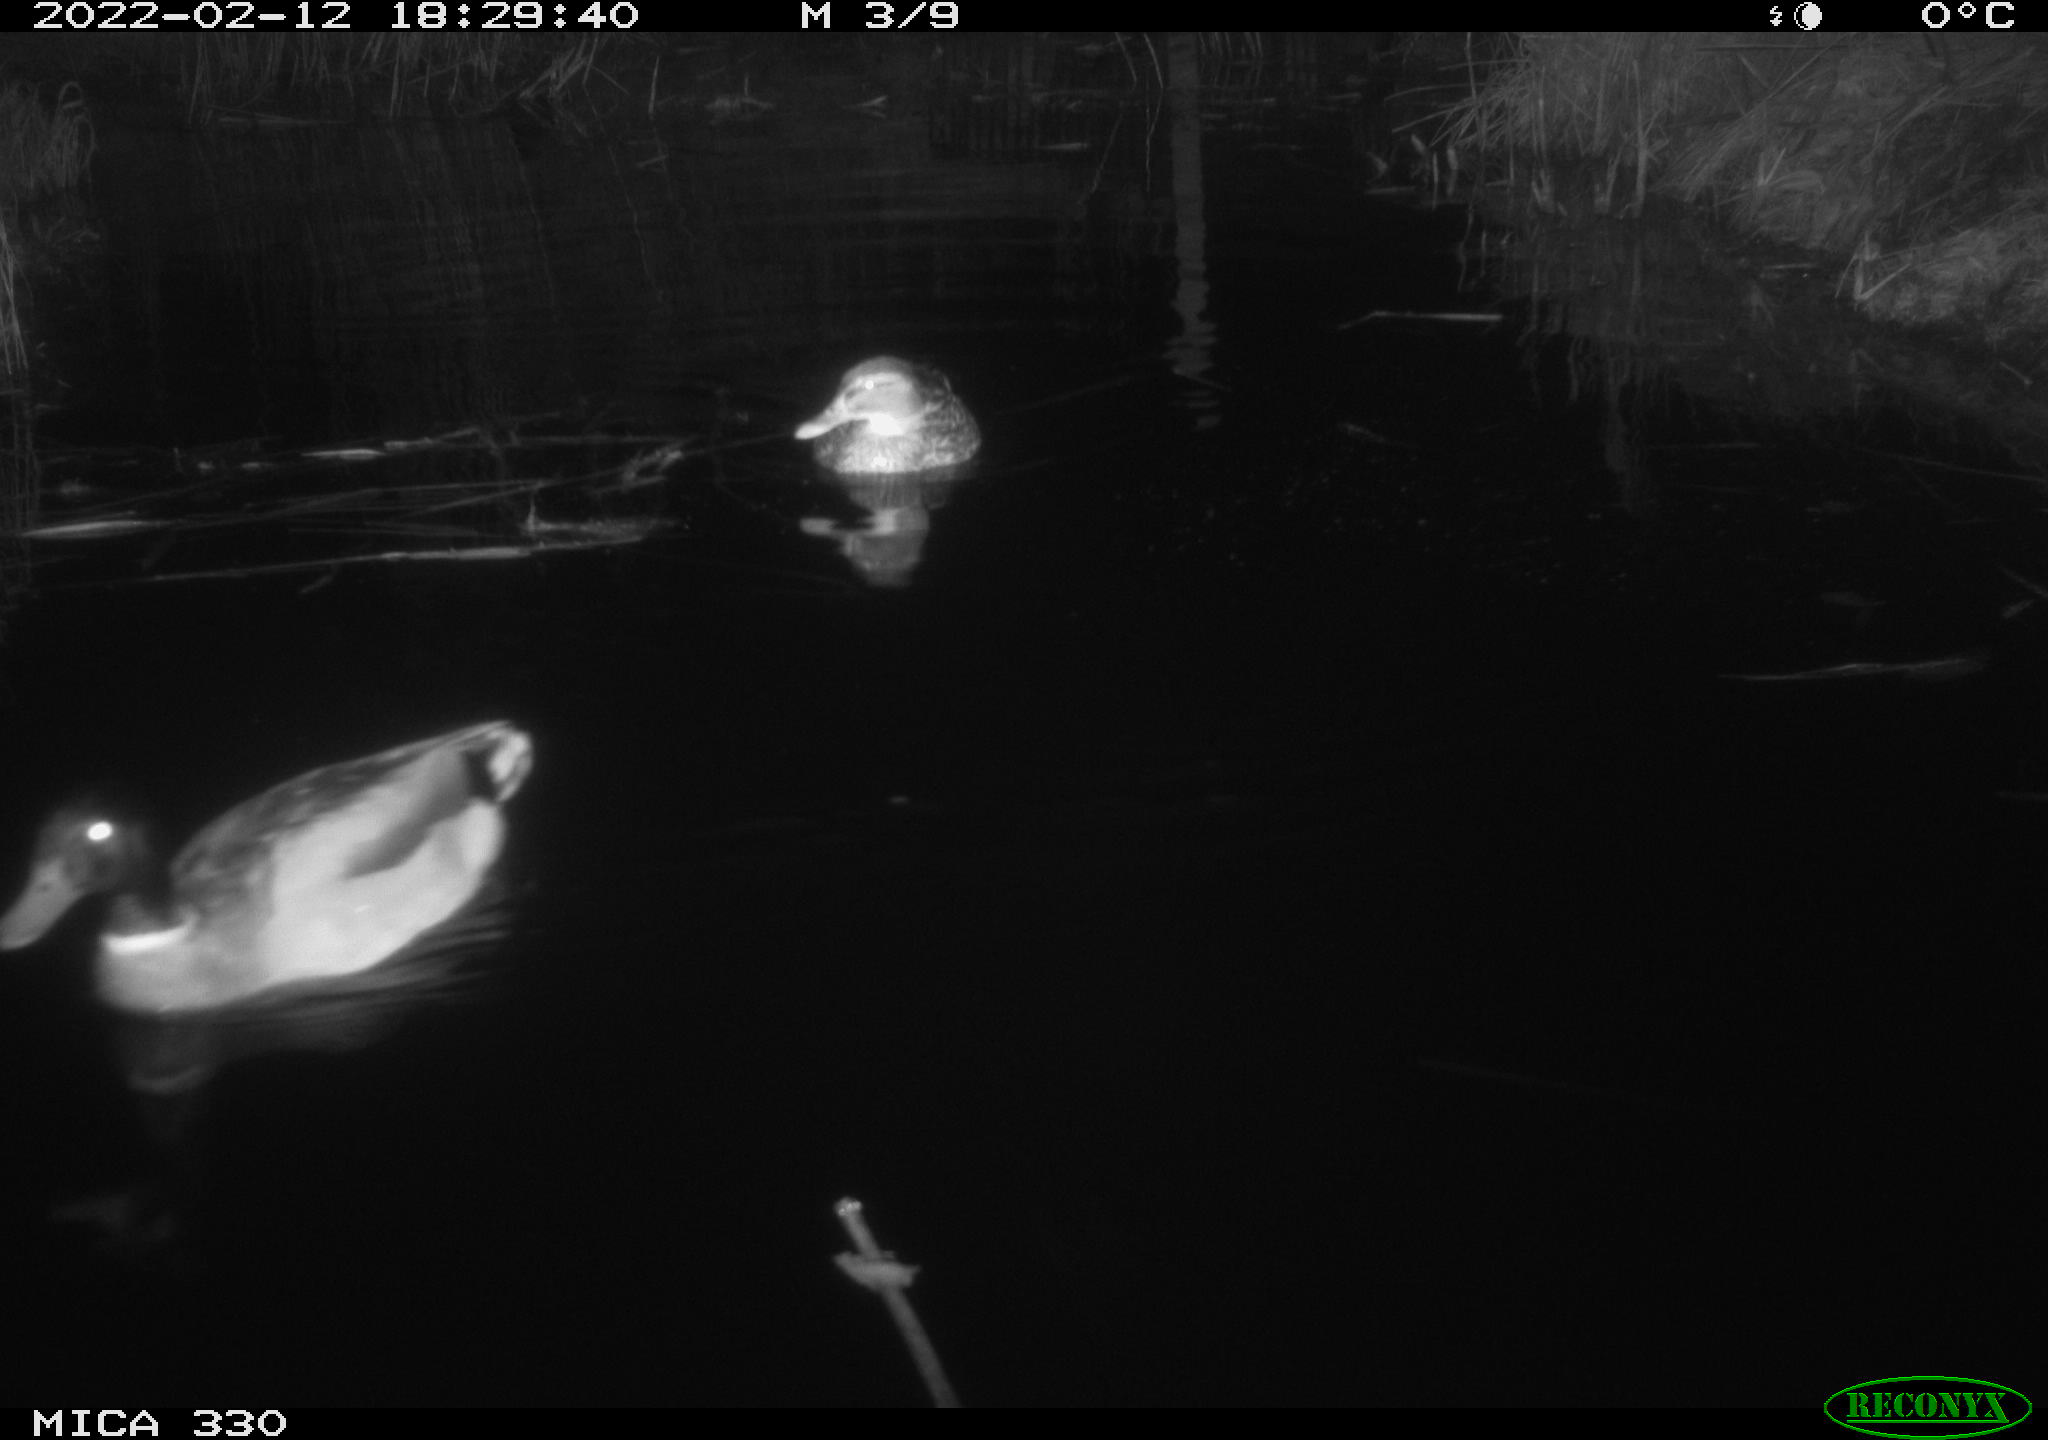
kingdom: Animalia
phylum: Chordata
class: Aves
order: Anseriformes
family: Anatidae
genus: Anas
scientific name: Anas platyrhynchos
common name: Mallard
